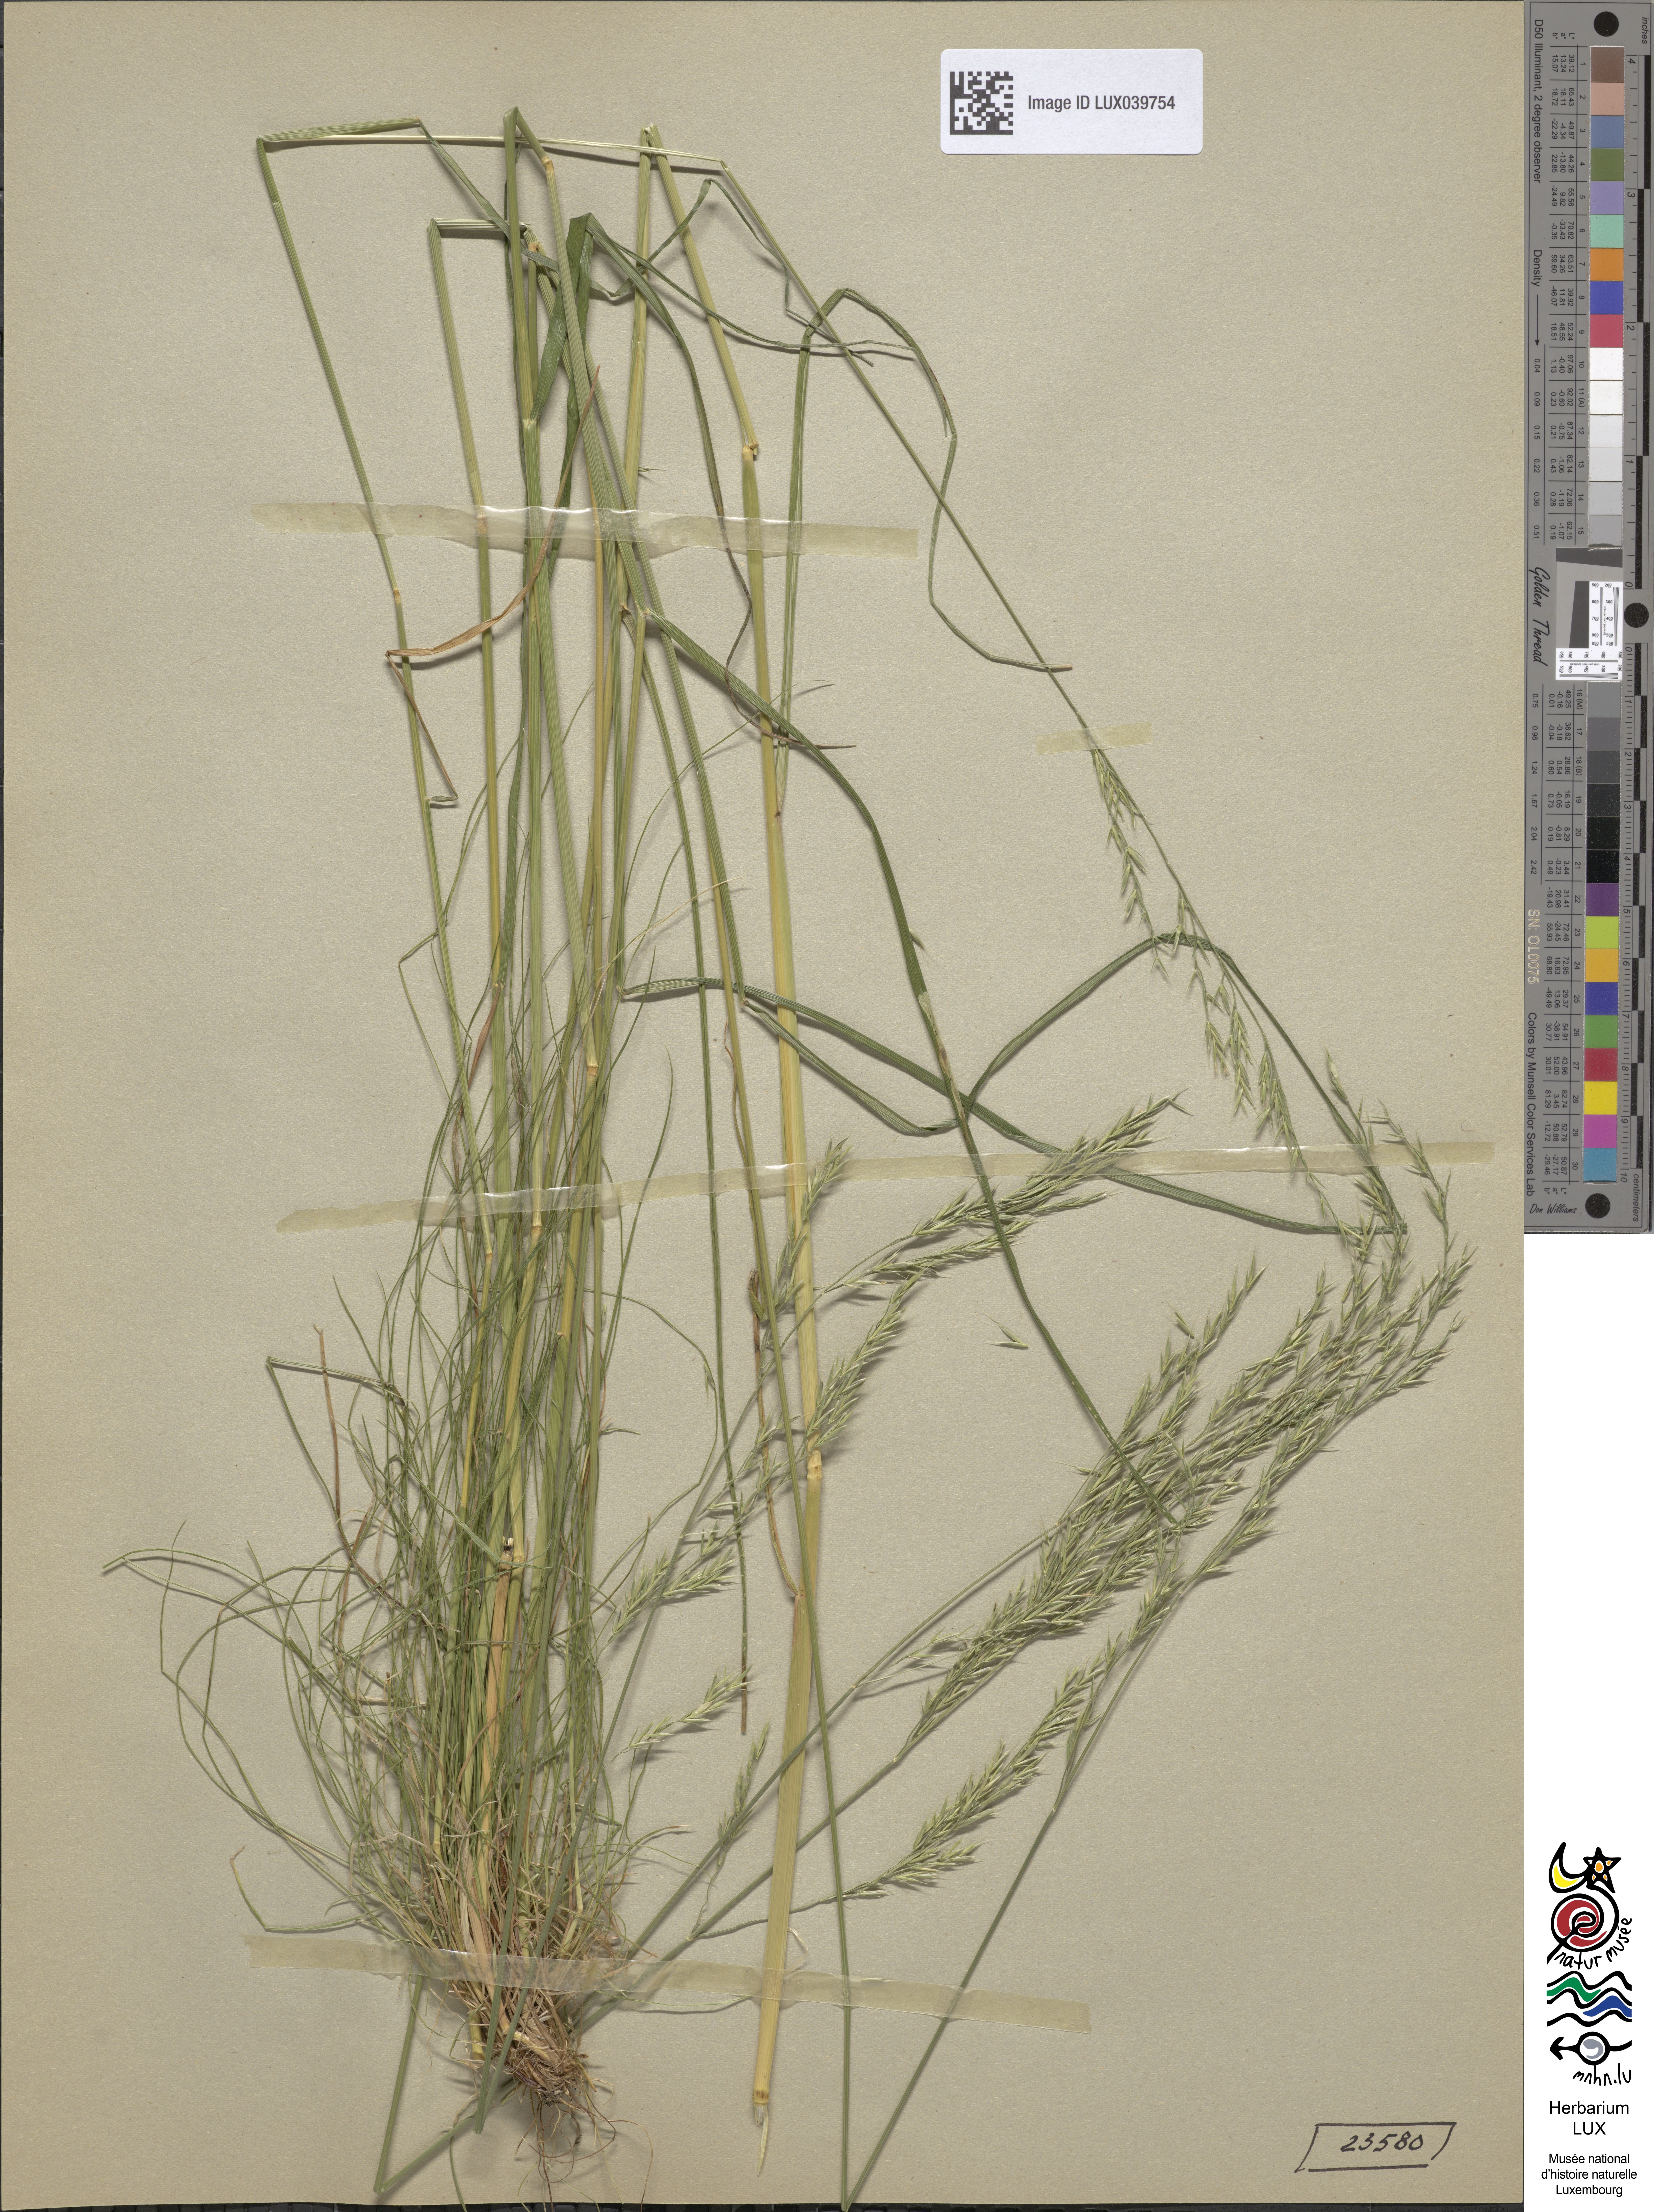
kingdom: Plantae
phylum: Tracheophyta
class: Liliopsida
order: Poales
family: Poaceae
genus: Festuca
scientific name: Festuca heterophylla
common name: Various-leaved fescue
